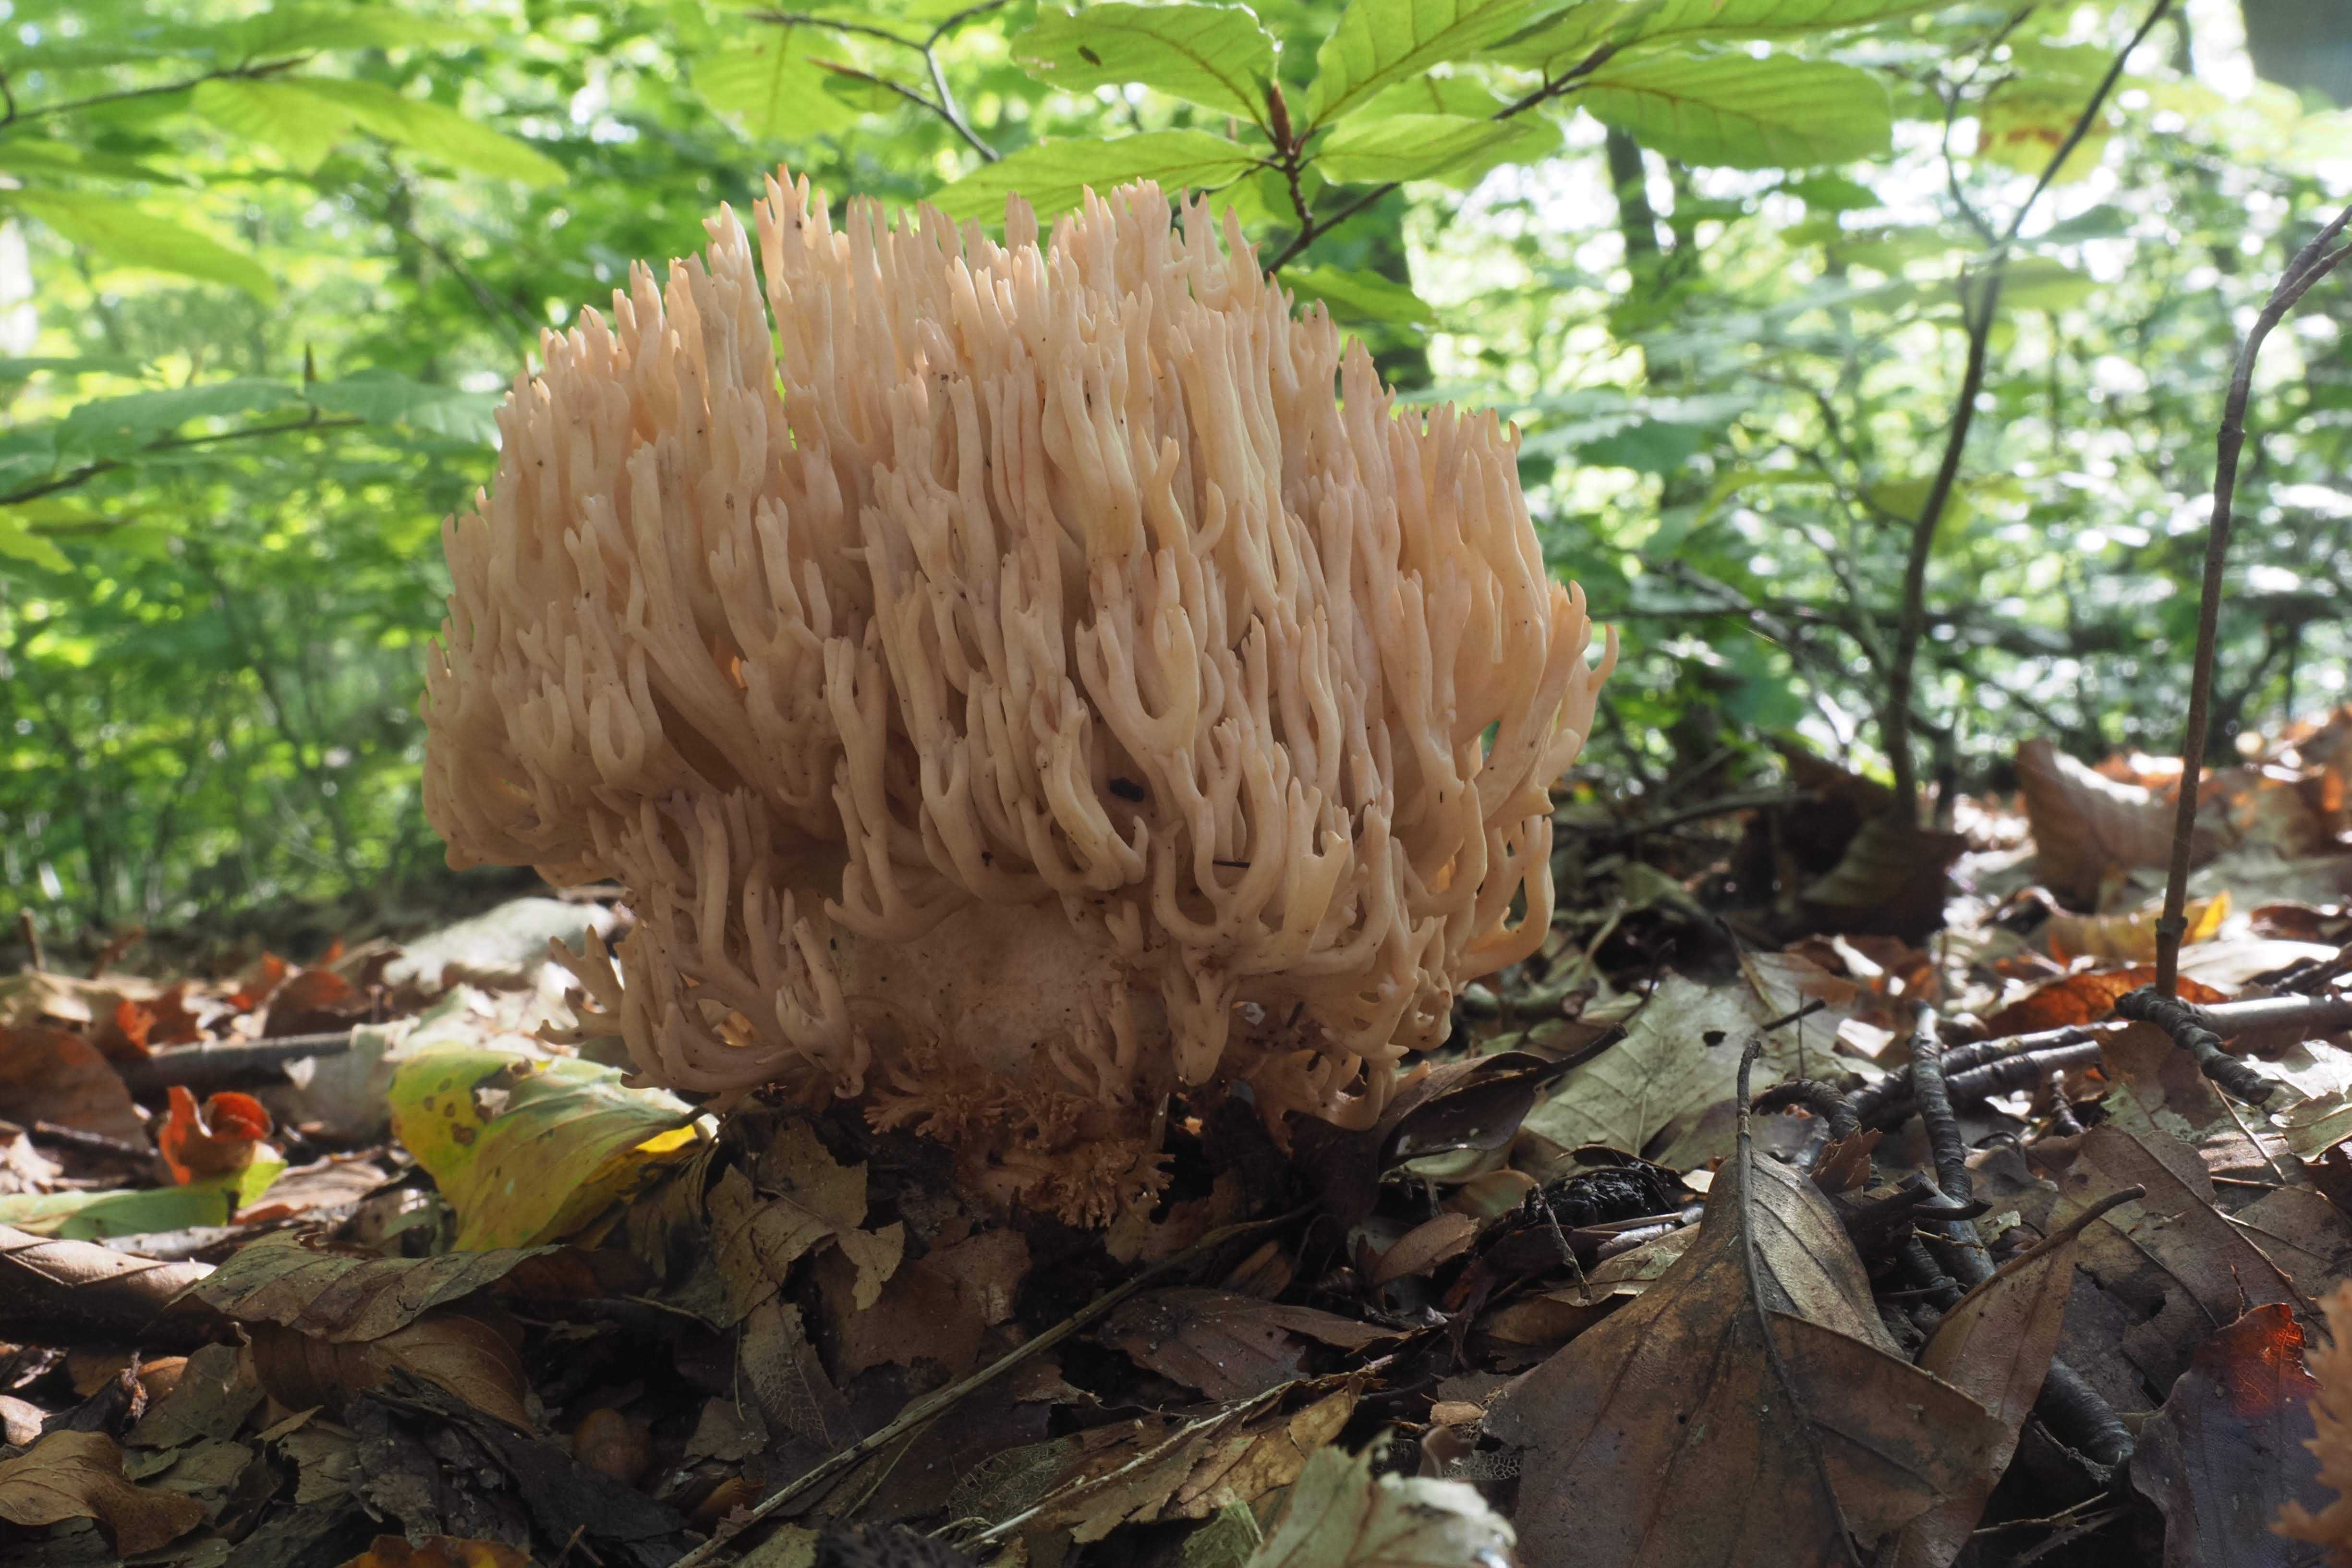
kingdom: Fungi
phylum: Basidiomycota
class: Agaricomycetes
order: Gomphales
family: Gomphaceae
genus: Ramaria
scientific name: Ramaria stricta
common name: rank koralsvamp
